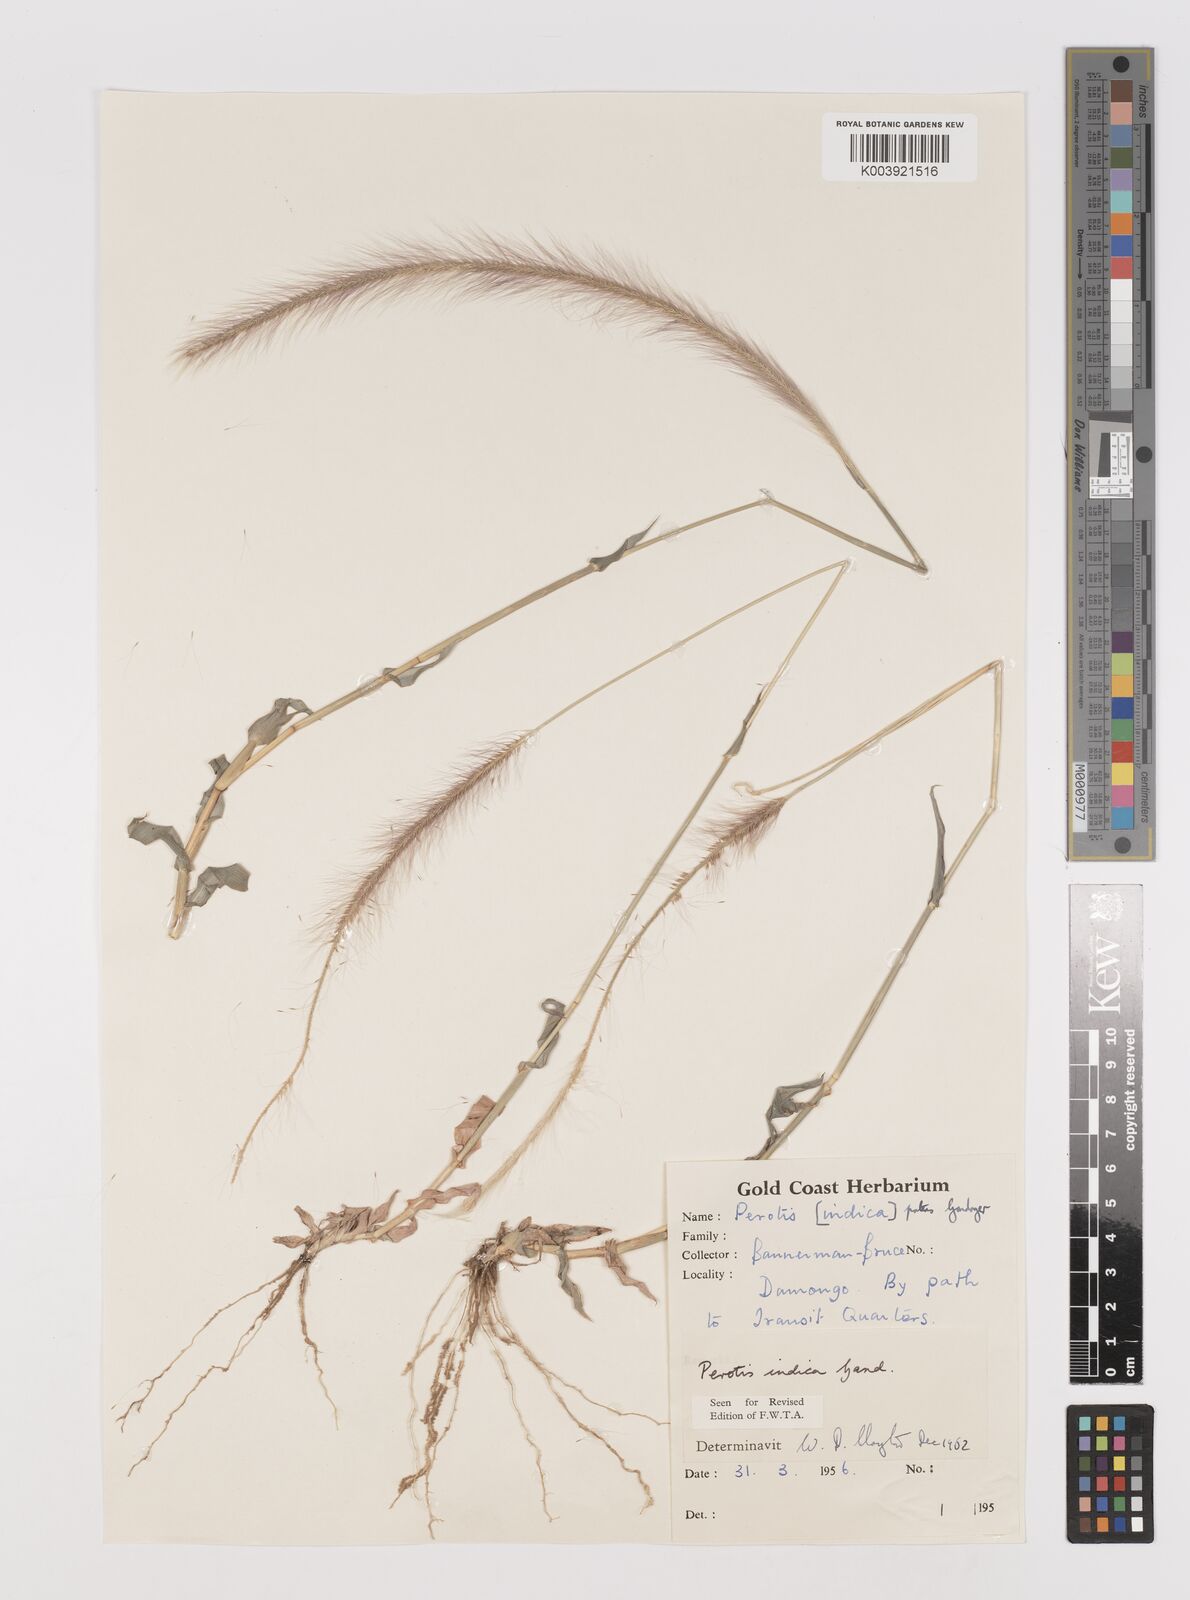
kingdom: Plantae
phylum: Tracheophyta
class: Liliopsida
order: Poales
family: Poaceae
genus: Perotis
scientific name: Perotis patens
